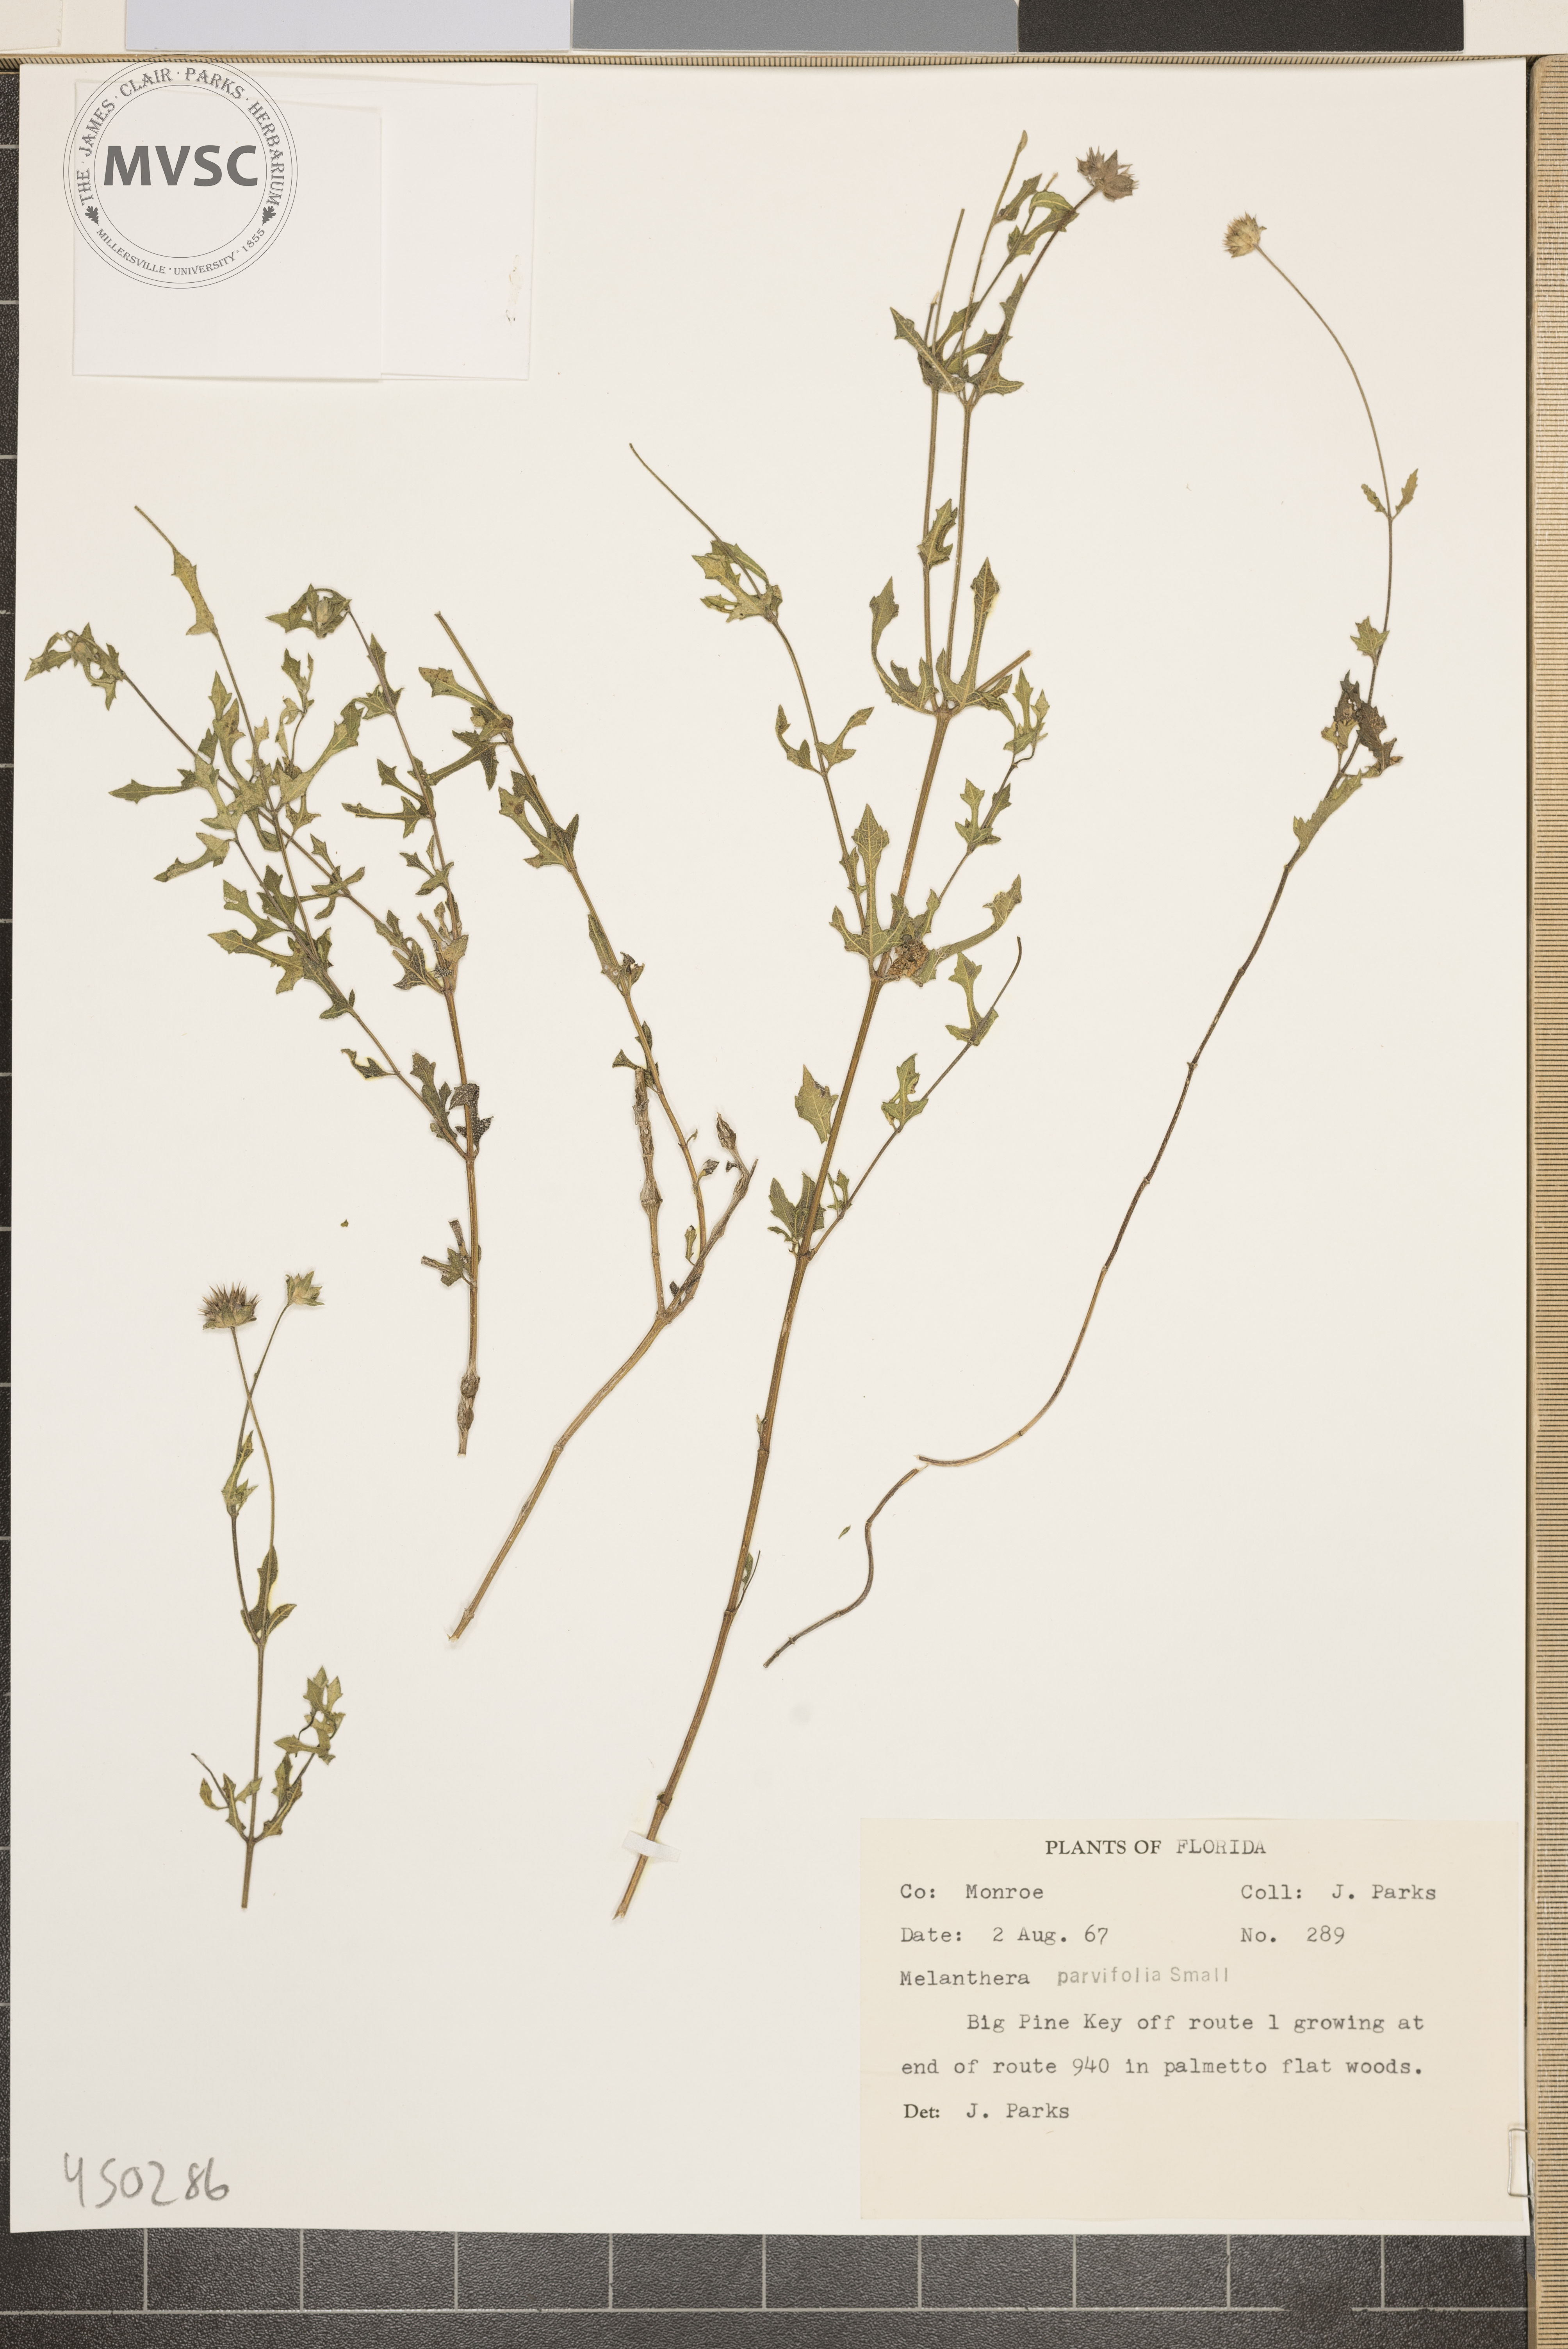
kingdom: Plantae
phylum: Tracheophyta
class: Magnoliopsida
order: Asterales
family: Asteraceae
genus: Melanthera
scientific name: Melanthera parvifolia
